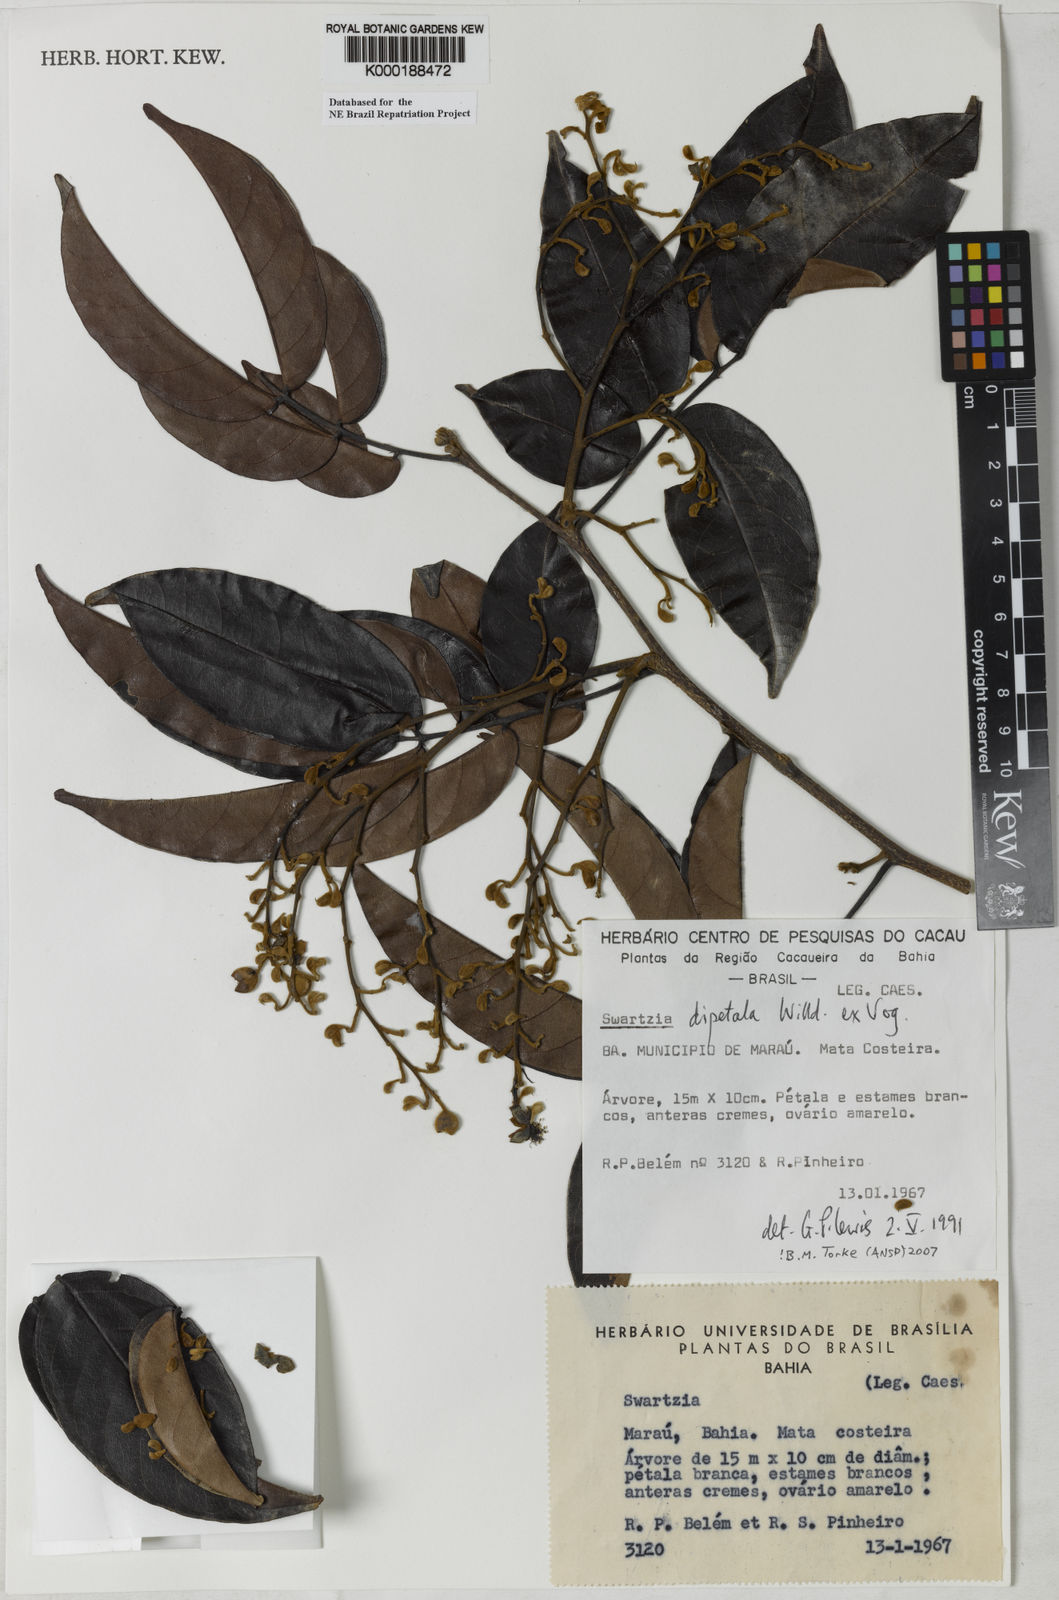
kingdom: Plantae
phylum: Tracheophyta
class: Magnoliopsida
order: Fabales
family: Fabaceae
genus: Swartzia
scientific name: Swartzia dipetala
